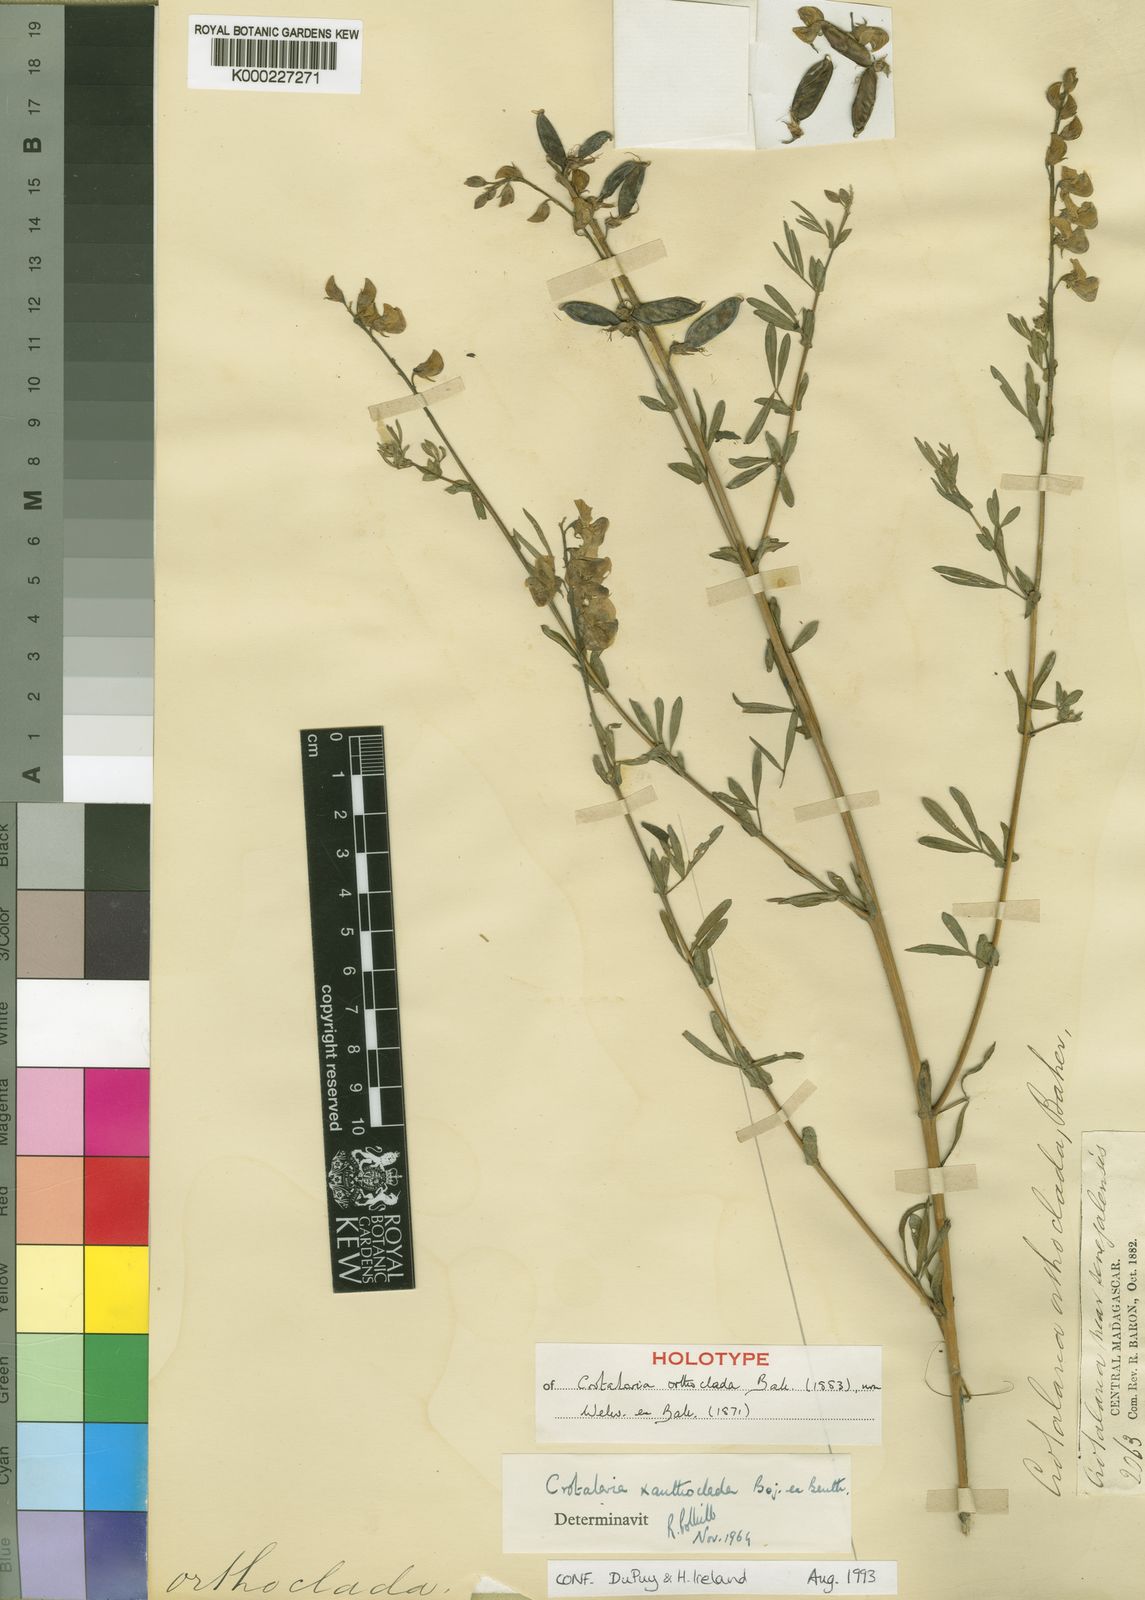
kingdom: Plantae
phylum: Tracheophyta
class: Magnoliopsida
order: Fabales
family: Fabaceae
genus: Crotalaria
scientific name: Crotalaria xanthoclada
